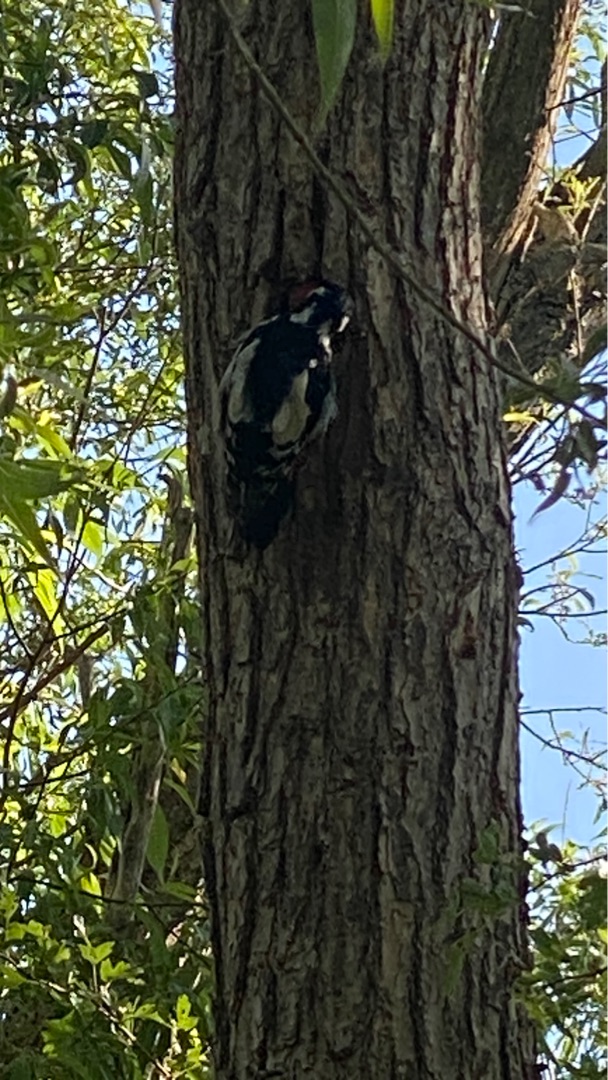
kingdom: Animalia
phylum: Chordata
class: Aves
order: Piciformes
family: Picidae
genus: Dendrocopos
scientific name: Dendrocopos major
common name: Stor flagspætte
